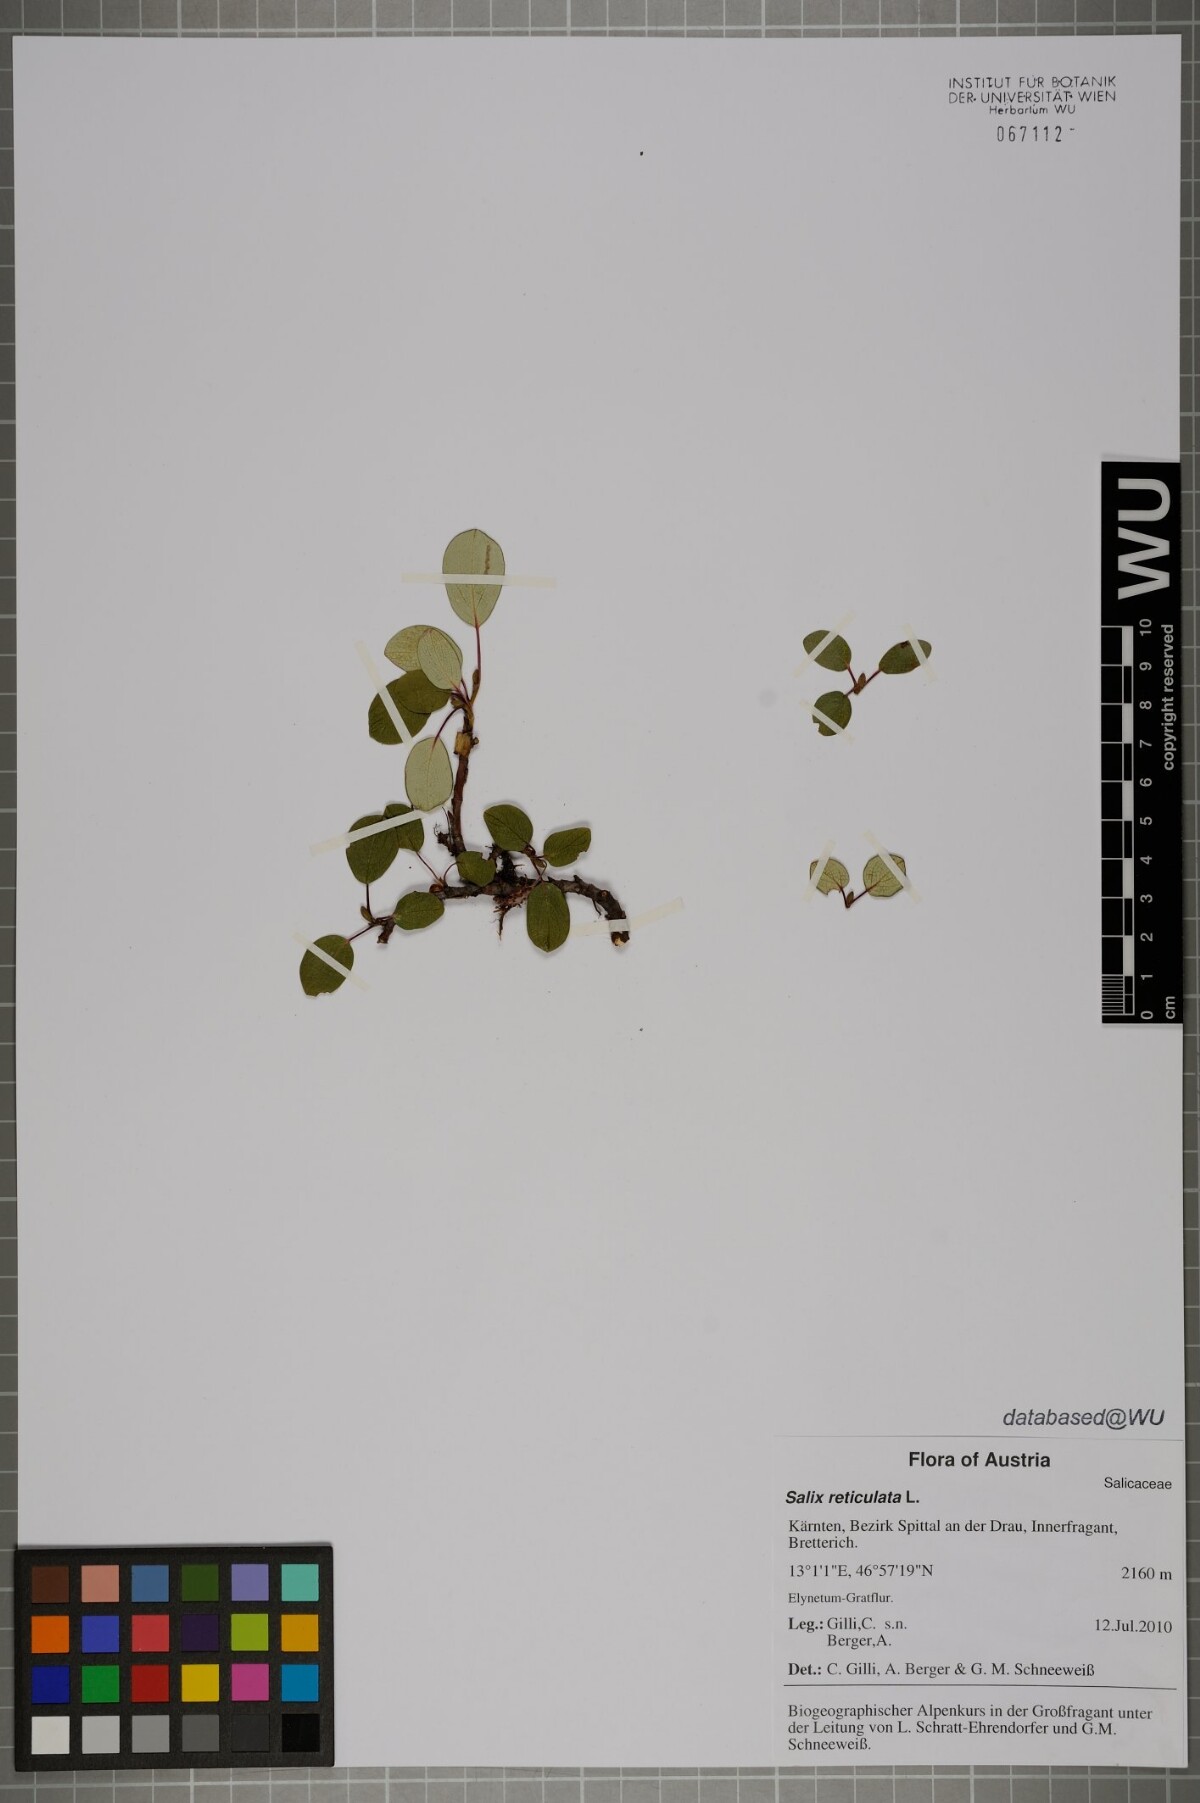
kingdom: Plantae
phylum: Tracheophyta
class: Magnoliopsida
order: Malpighiales
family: Salicaceae
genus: Salix
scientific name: Salix reticulata
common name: Net-leaved willow
